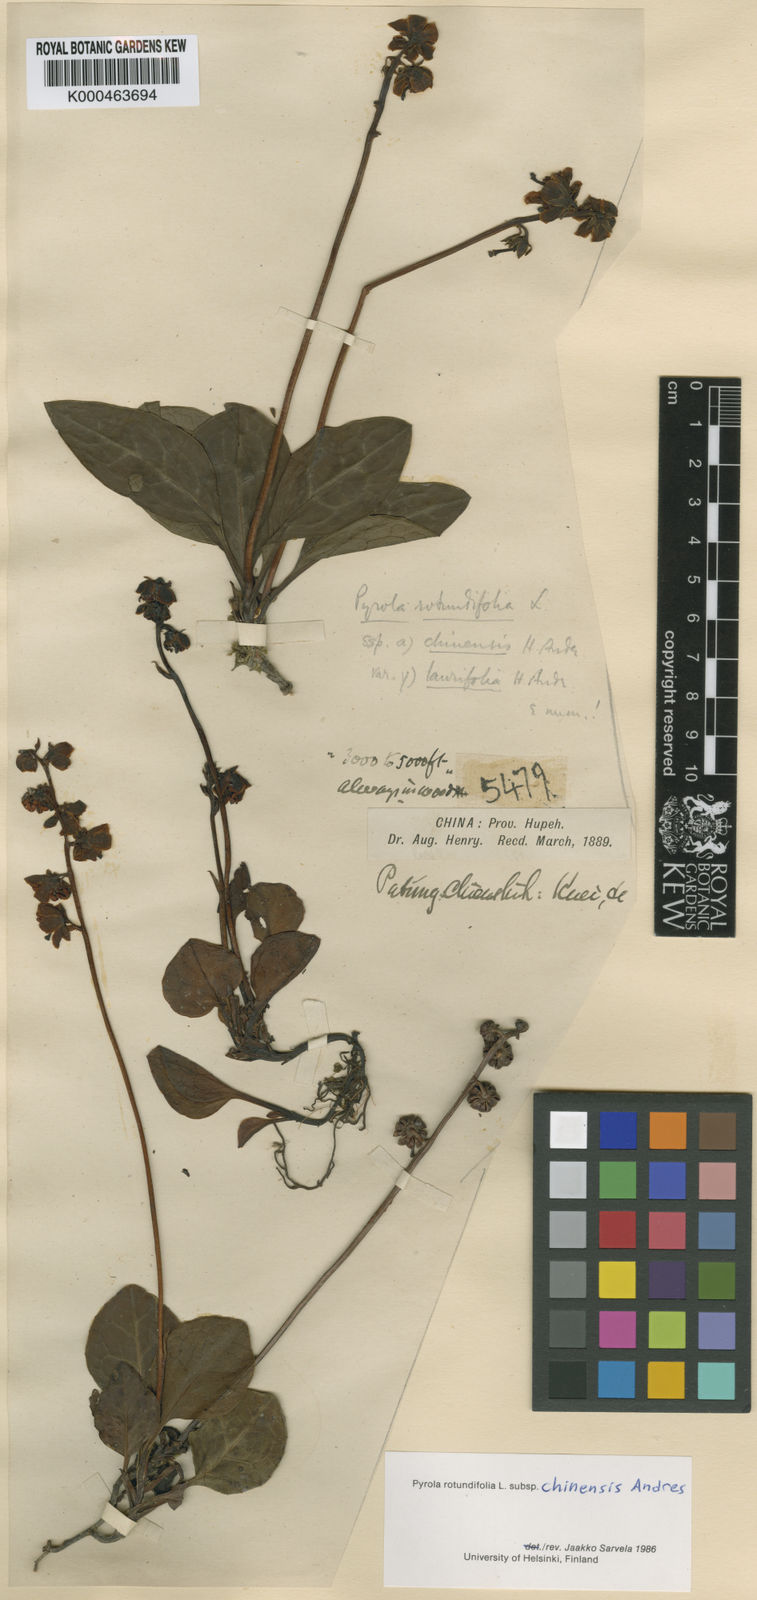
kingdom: Plantae
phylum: Tracheophyta
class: Magnoliopsida
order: Ericales
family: Ericaceae
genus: Pyrola
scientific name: Pyrola rotundifolia
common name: Round-leaved wintergreen
